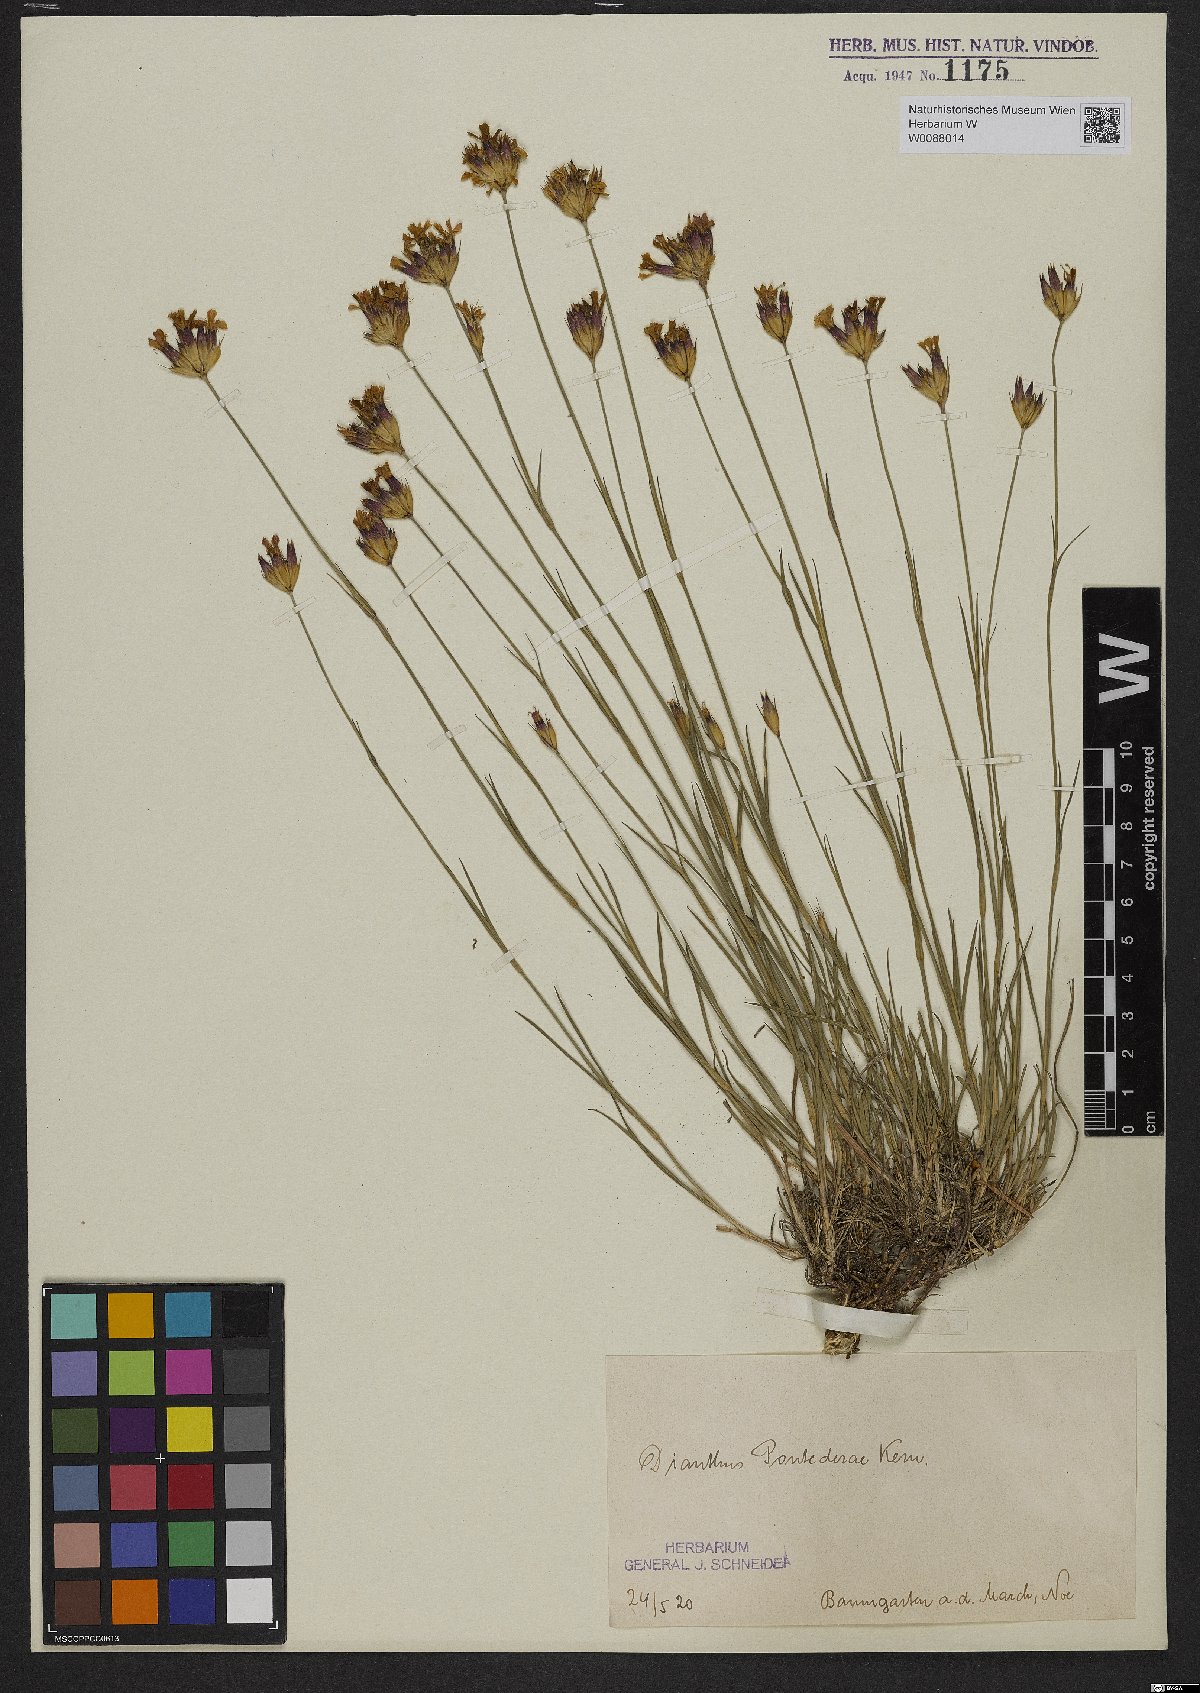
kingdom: Plantae
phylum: Tracheophyta
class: Magnoliopsida
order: Caryophyllales
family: Caryophyllaceae
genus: Dianthus
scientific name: Dianthus pontederae
